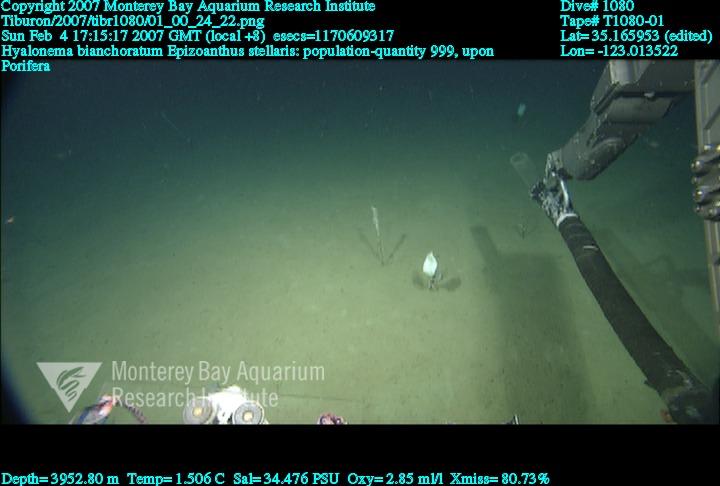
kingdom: Animalia
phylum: Porifera
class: Hexactinellida
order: Amphidiscosida
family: Hyalonematidae
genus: Hyalonema
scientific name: Hyalonema bianchoratum
